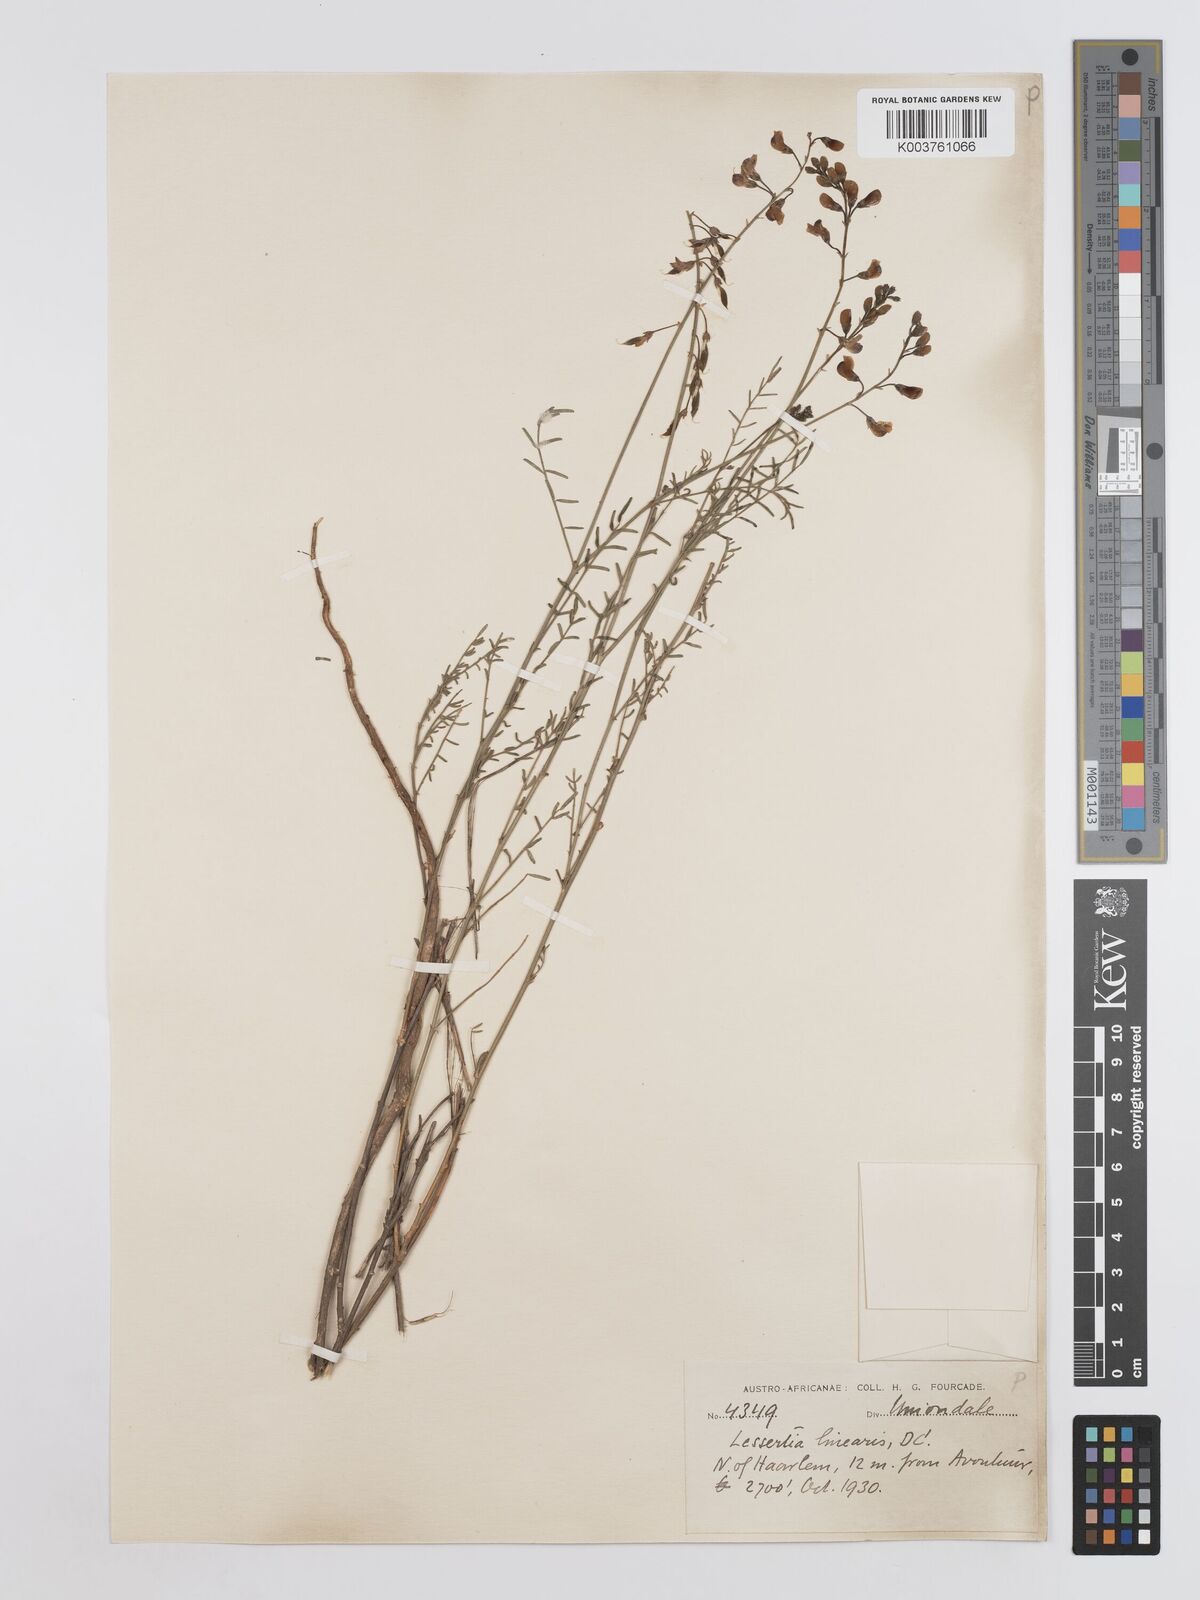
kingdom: Plantae
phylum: Tracheophyta
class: Magnoliopsida
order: Fabales
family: Fabaceae
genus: Lessertia
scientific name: Lessertia herbacea
